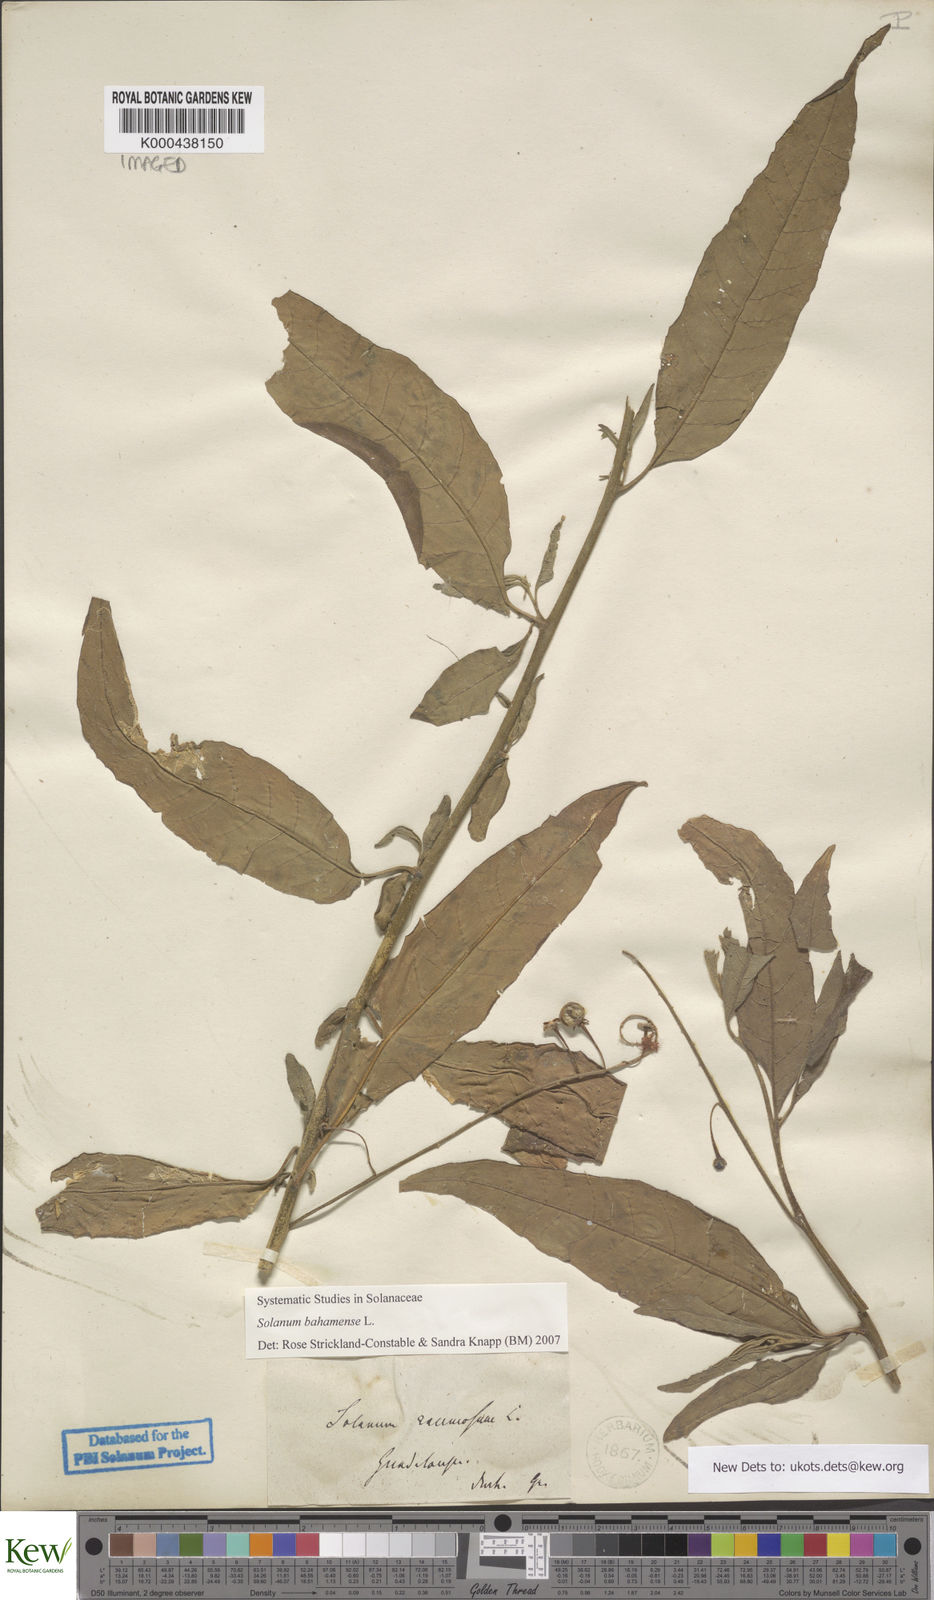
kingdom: Plantae
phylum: Tracheophyta
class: Magnoliopsida
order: Solanales
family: Solanaceae
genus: Solanum
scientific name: Solanum bahamense
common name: Canker-berry
